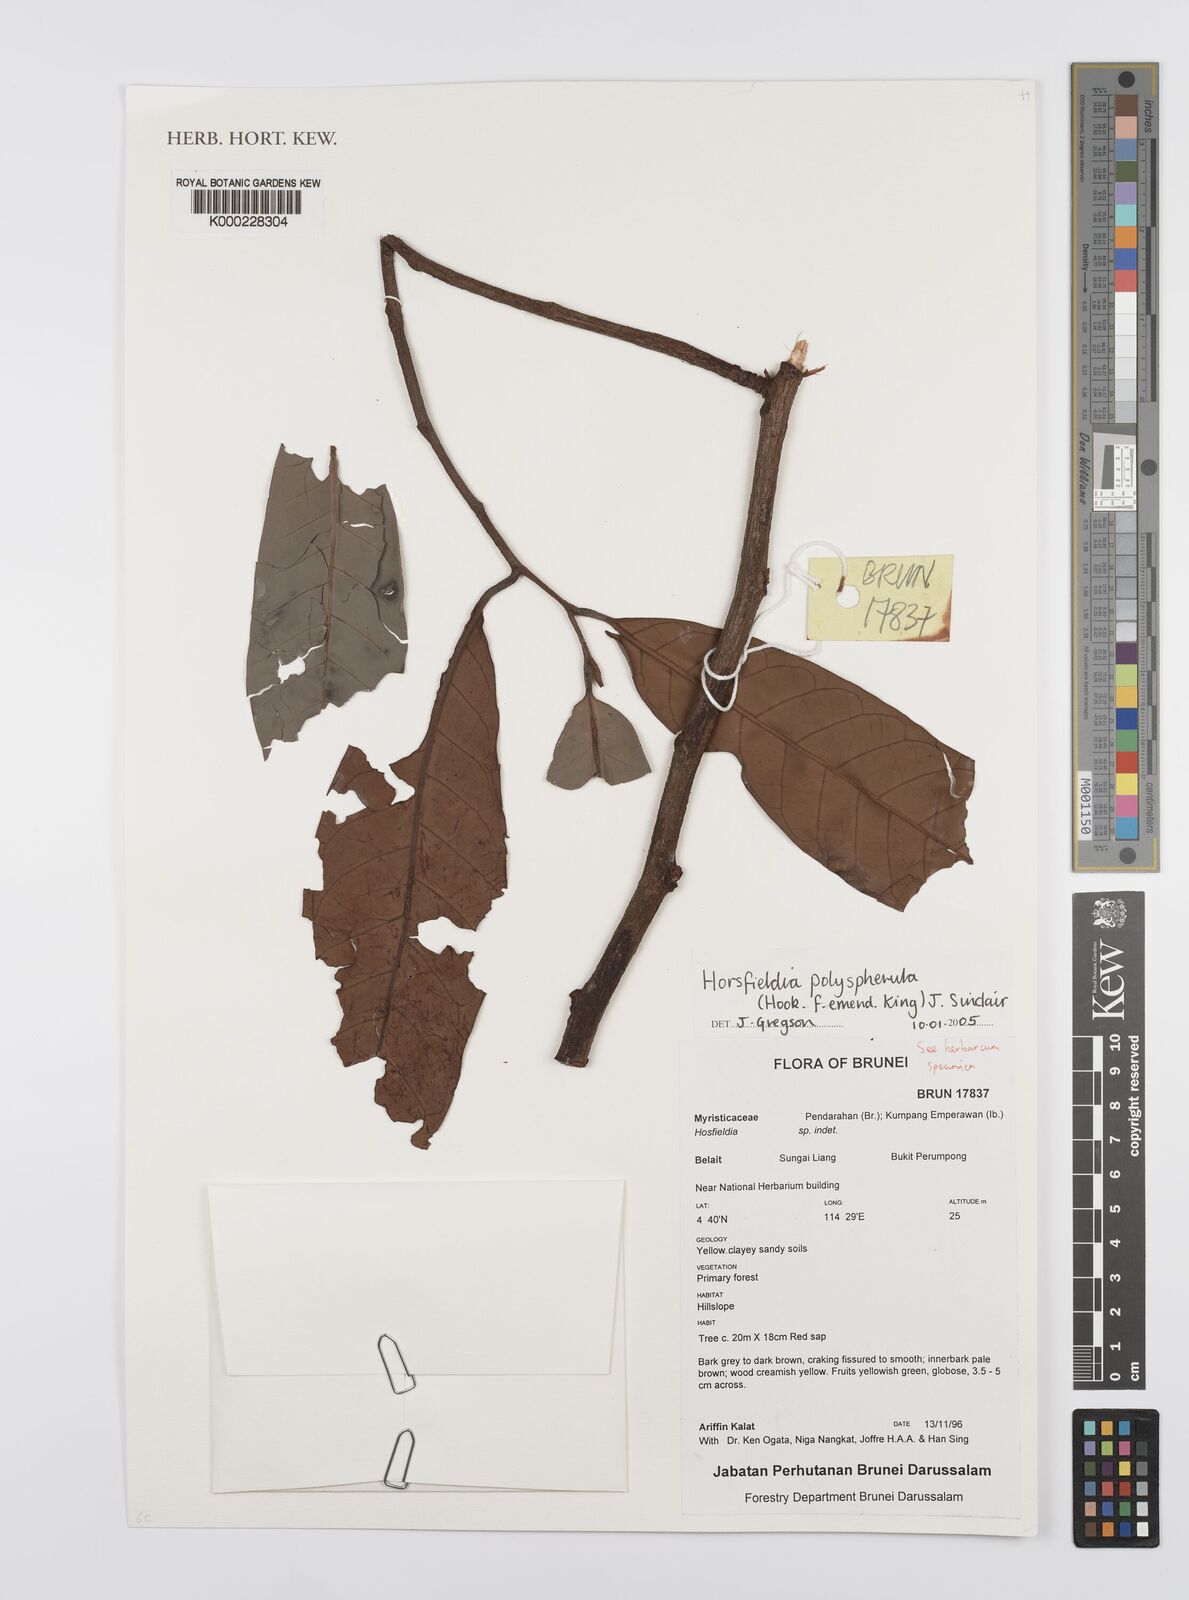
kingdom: Plantae
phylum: Tracheophyta
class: Magnoliopsida
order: Magnoliales
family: Myristicaceae
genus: Horsfieldia
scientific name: Horsfieldia
